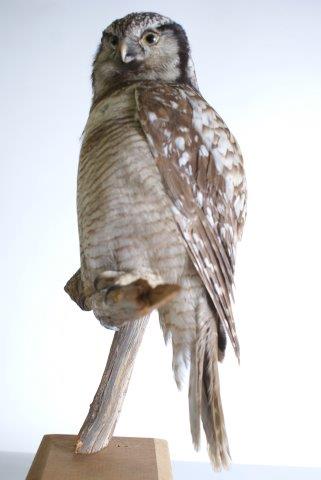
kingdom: Animalia
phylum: Chordata
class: Aves
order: Strigiformes
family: Strigidae
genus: Surnia
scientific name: Surnia ulula
